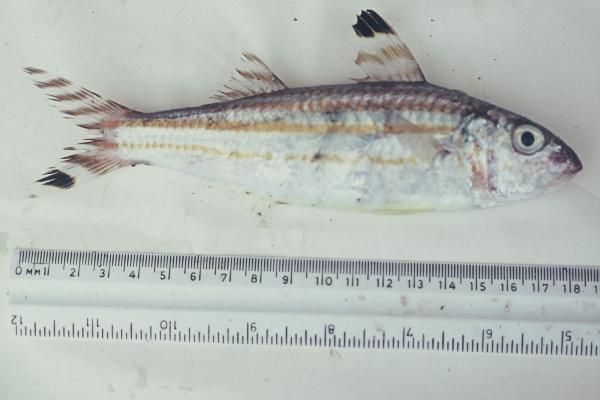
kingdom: Animalia
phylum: Chordata
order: Perciformes
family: Mullidae
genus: Upeneus
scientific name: Upeneus
